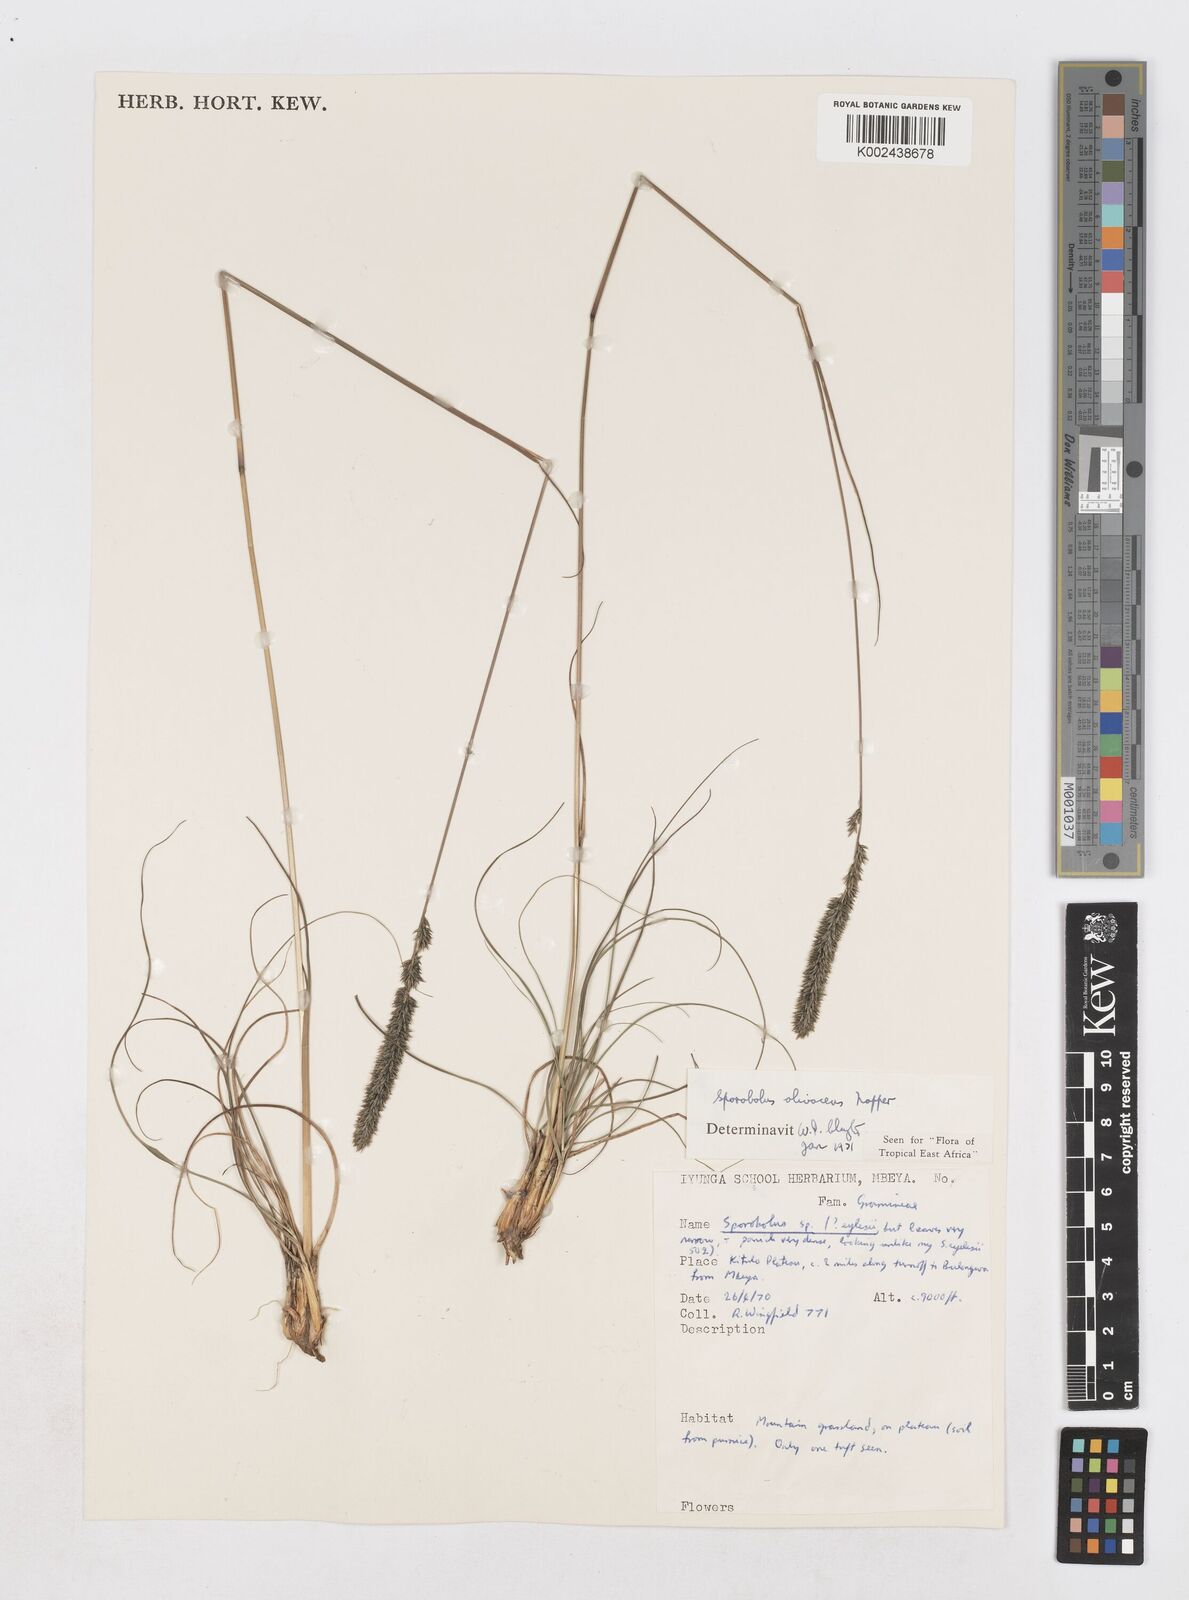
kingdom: Plantae
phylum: Tracheophyta
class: Liliopsida
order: Poales
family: Poaceae
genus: Sporobolus
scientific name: Sporobolus olivaceus
